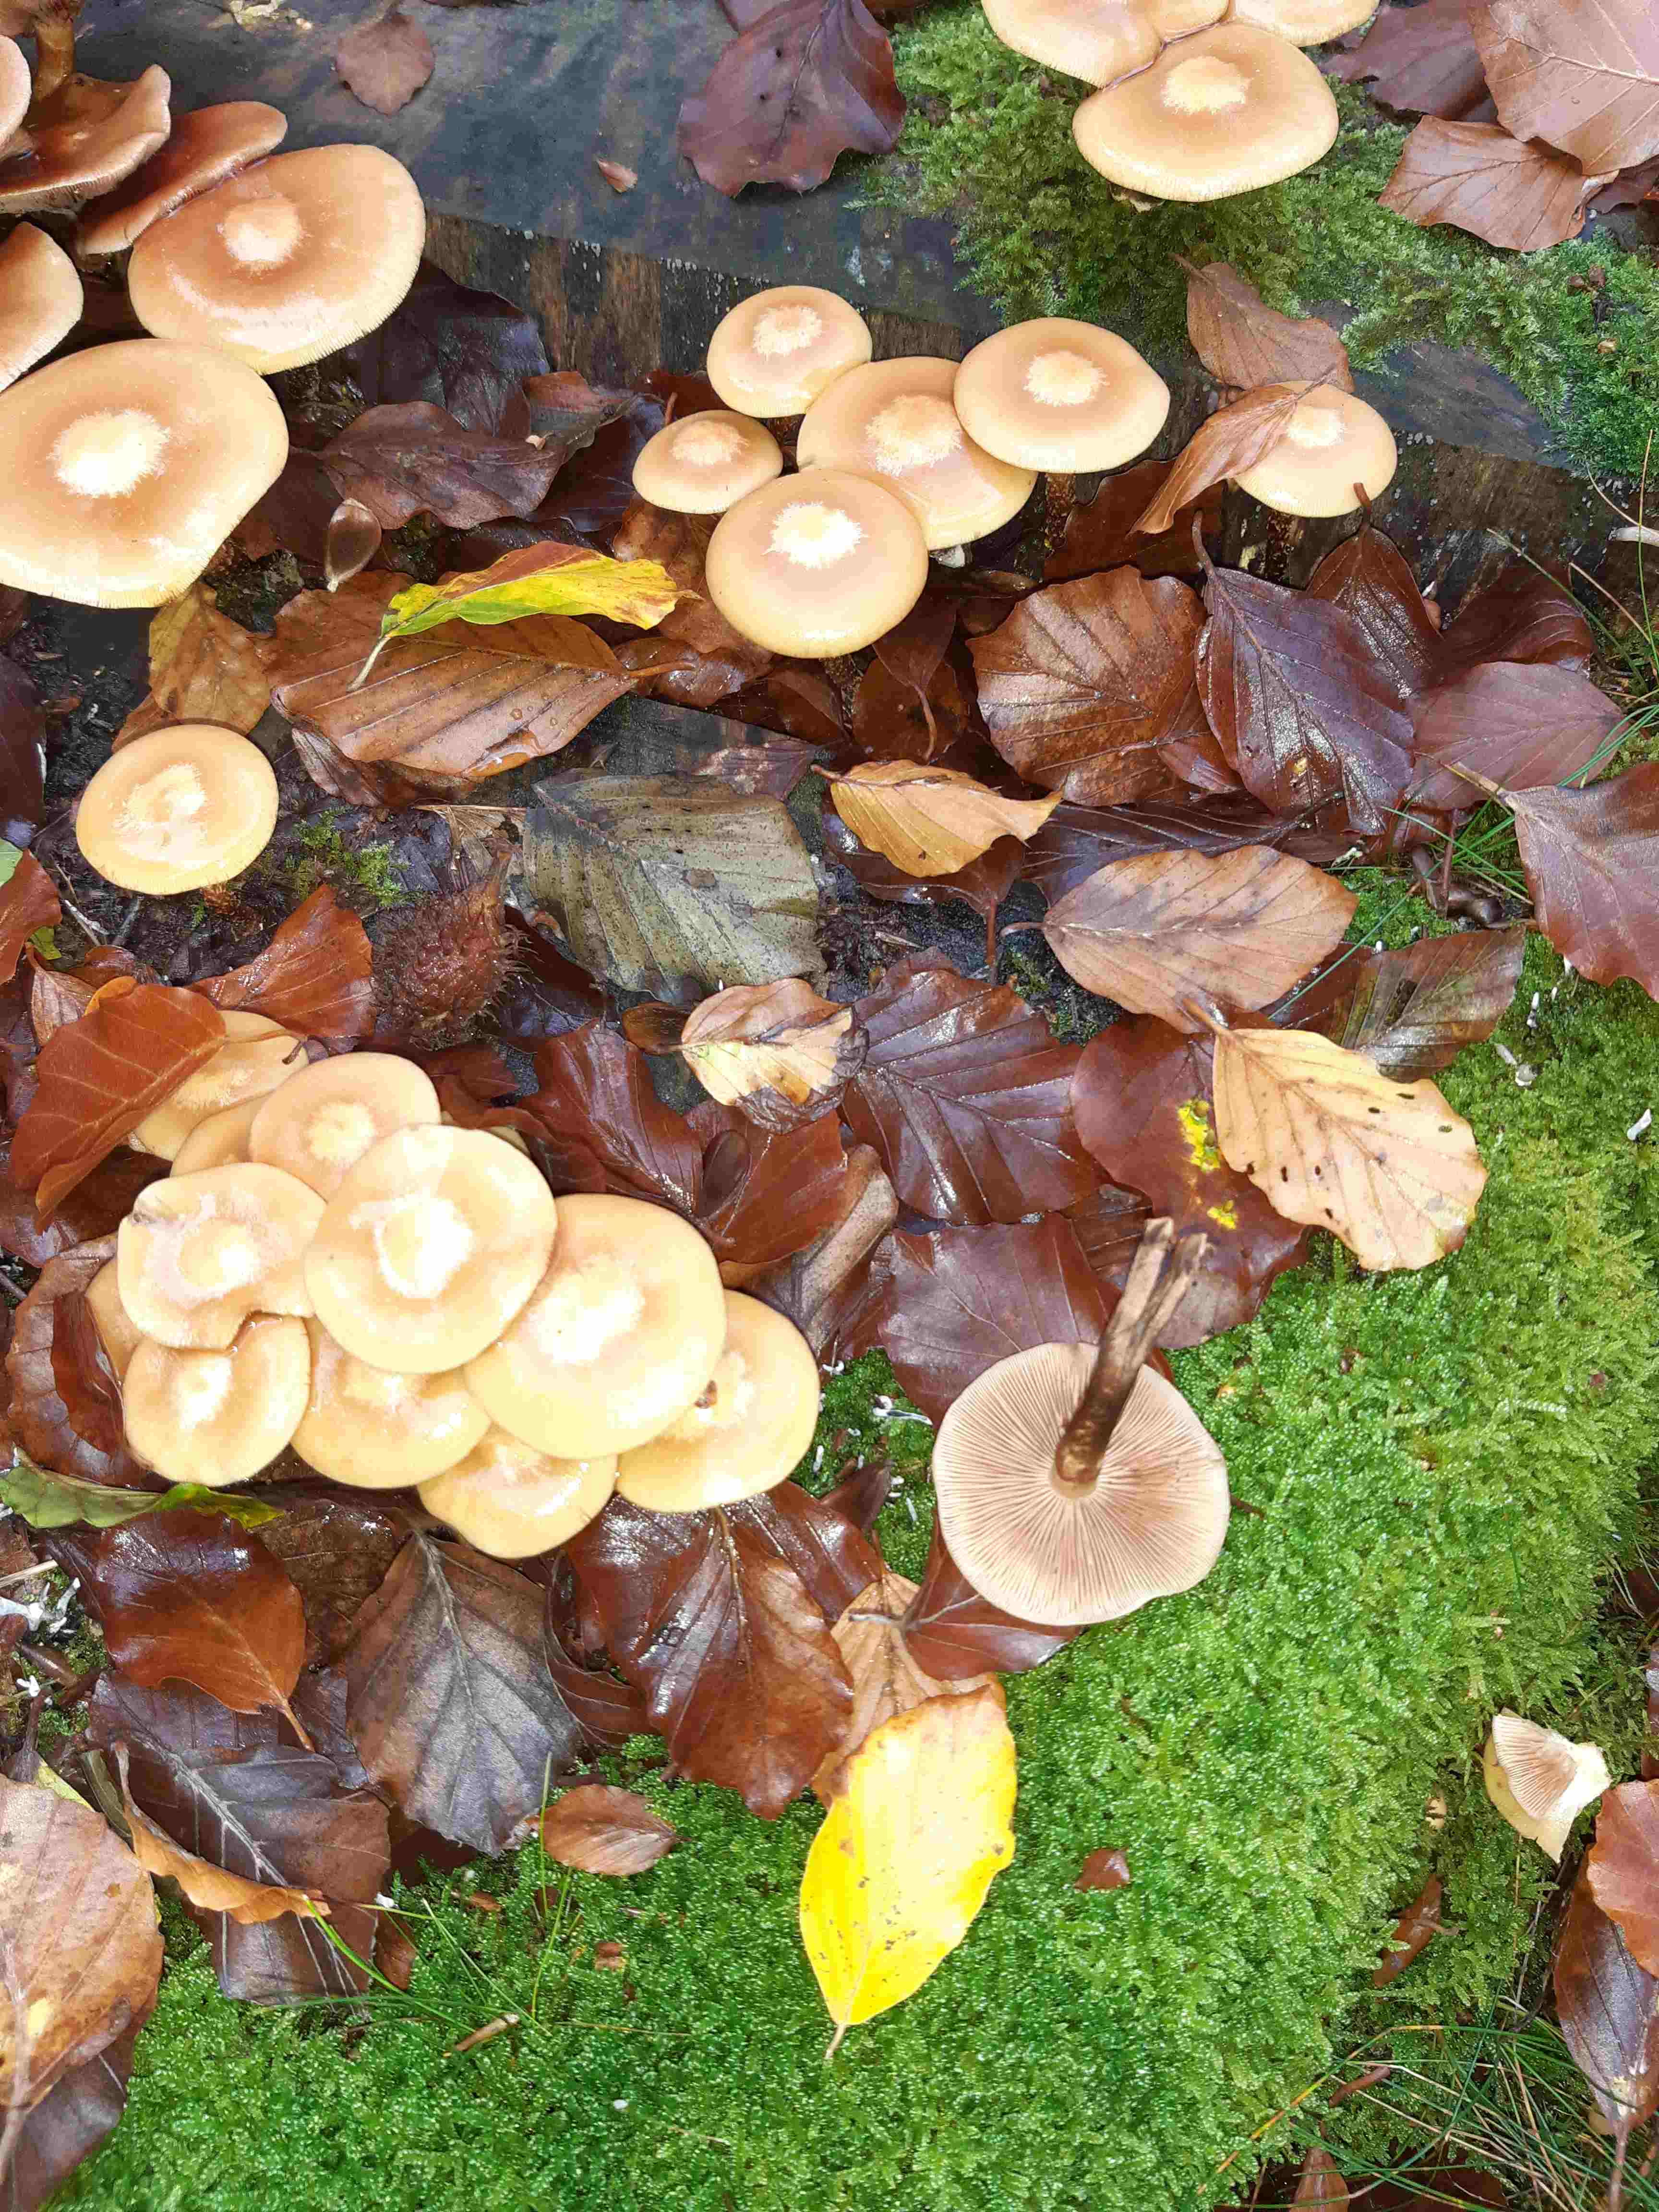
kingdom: Fungi
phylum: Basidiomycota
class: Agaricomycetes
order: Agaricales
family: Strophariaceae
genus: Kuehneromyces
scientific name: Kuehneromyces mutabilis
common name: foranderlig skælhat
